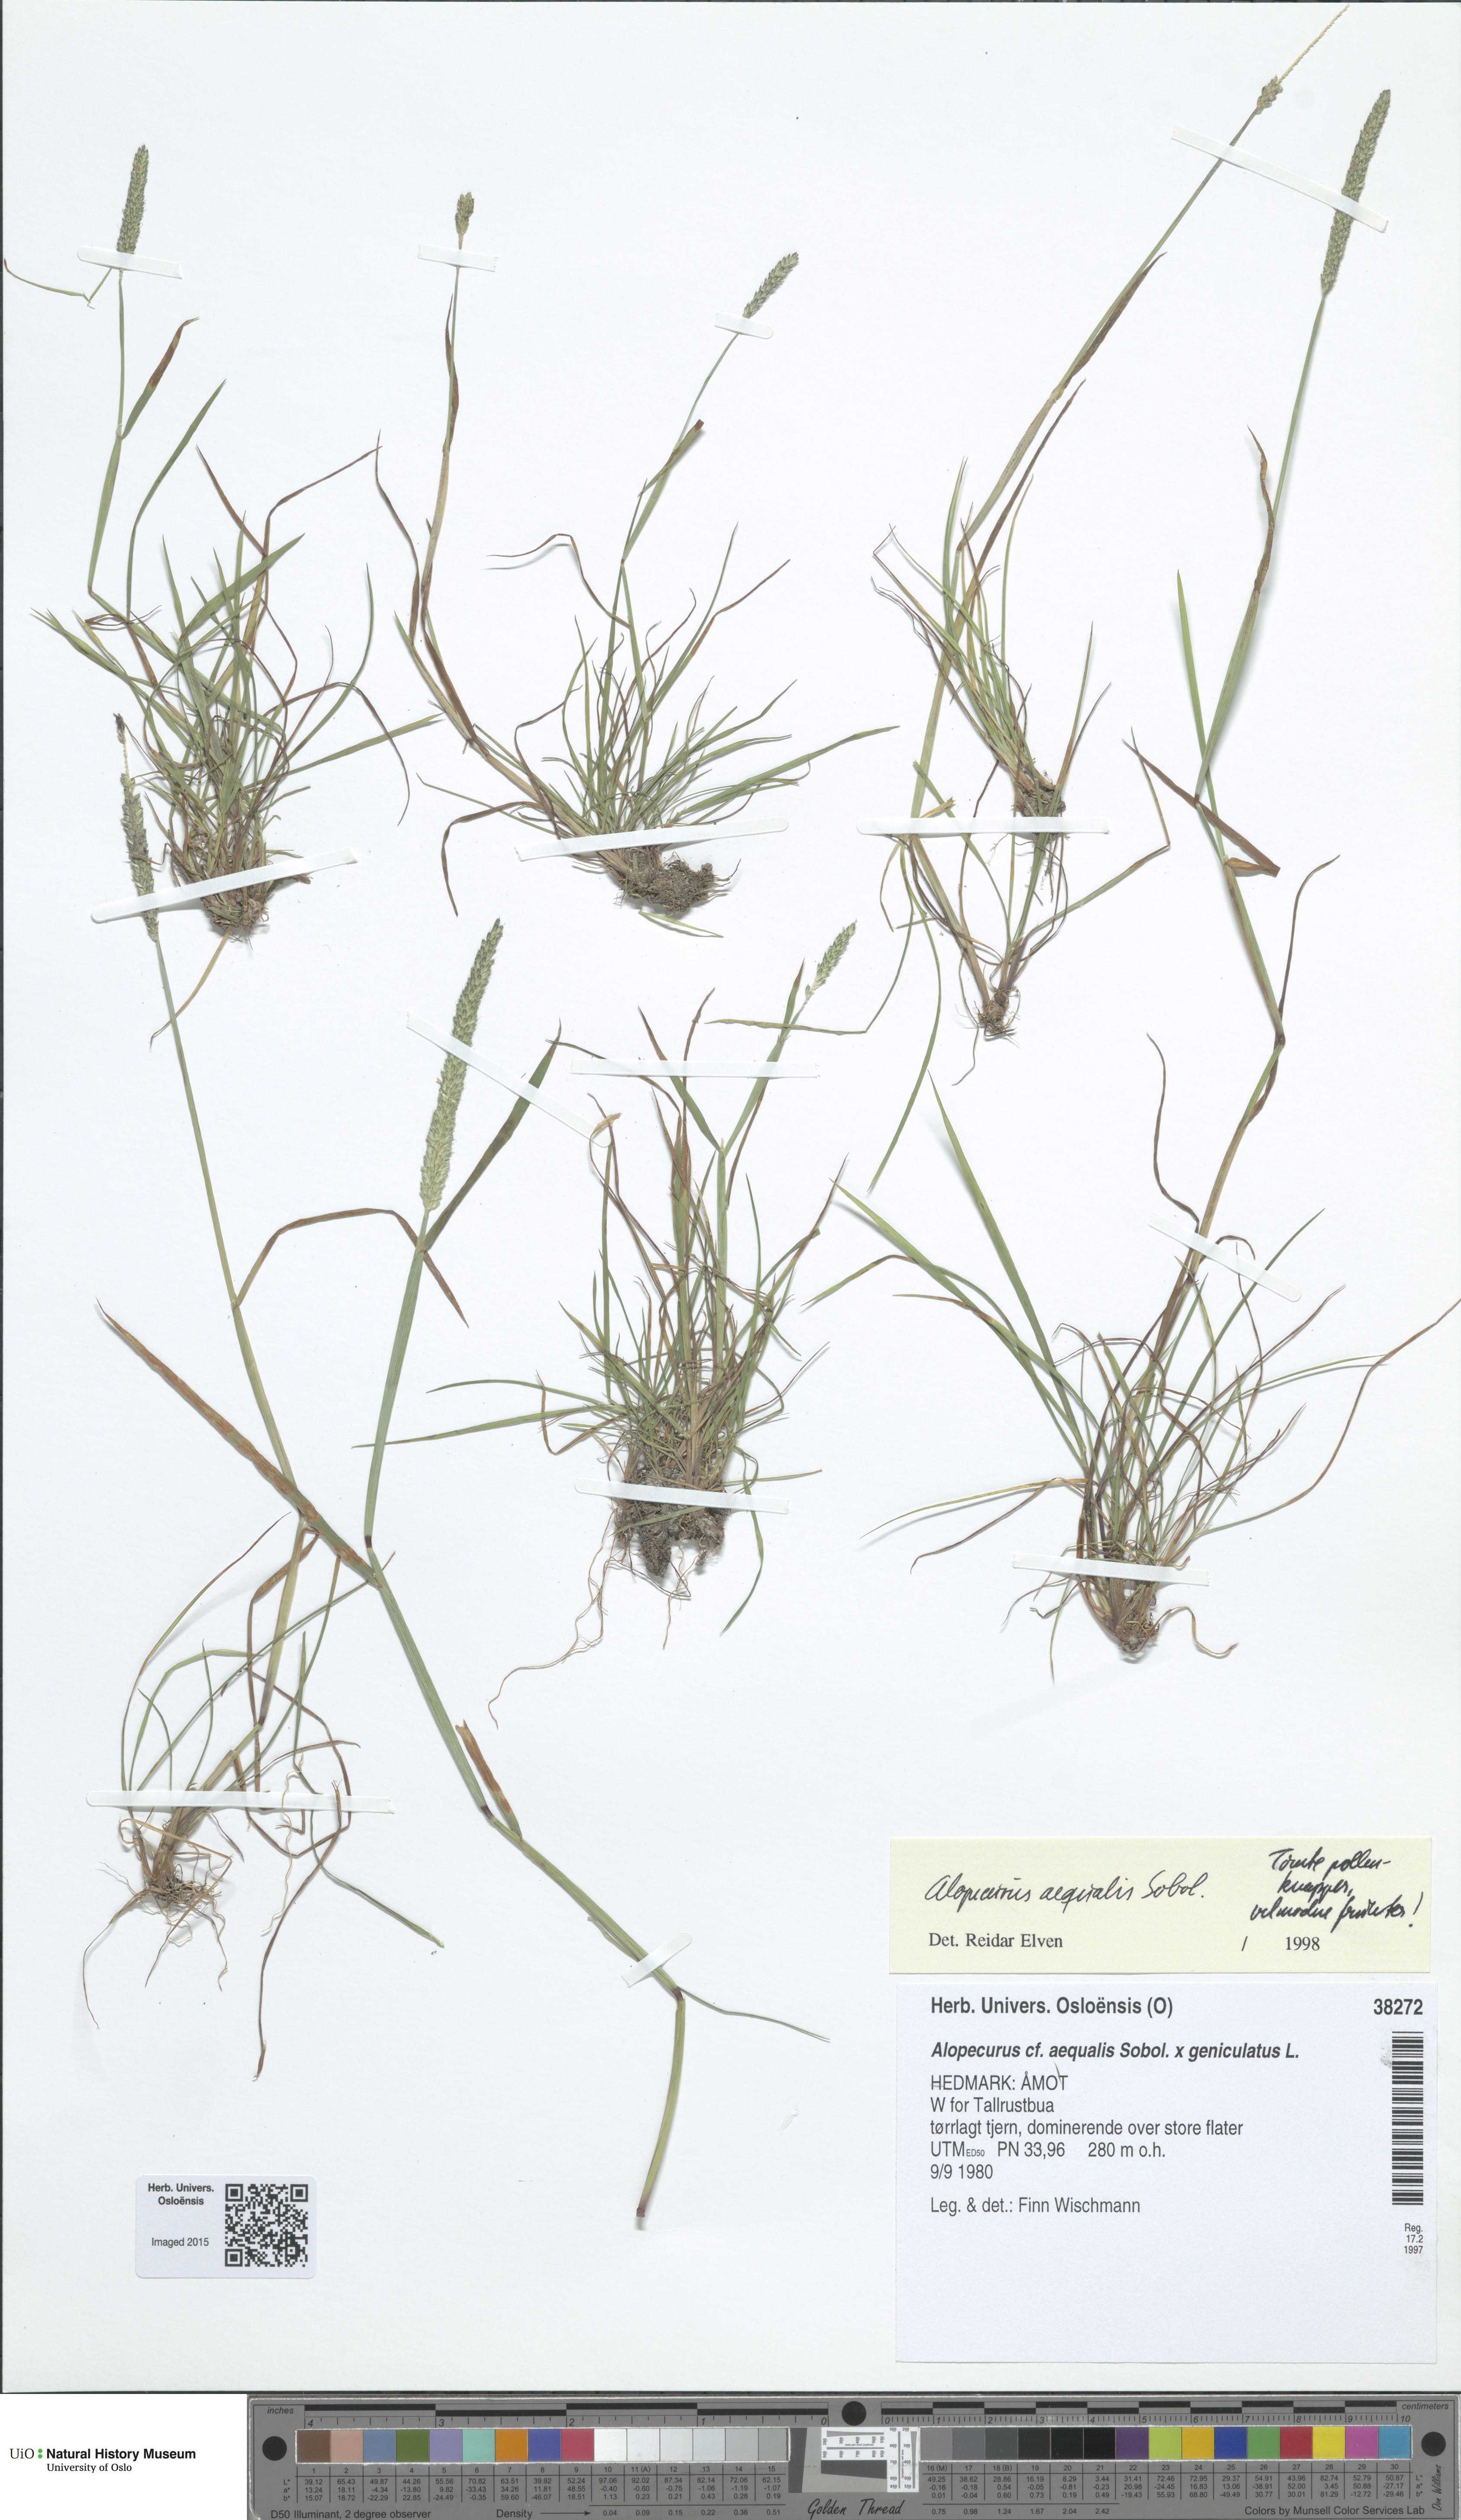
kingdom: Plantae
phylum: Tracheophyta
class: Liliopsida
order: Poales
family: Poaceae
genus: Alopecurus
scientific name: Alopecurus
